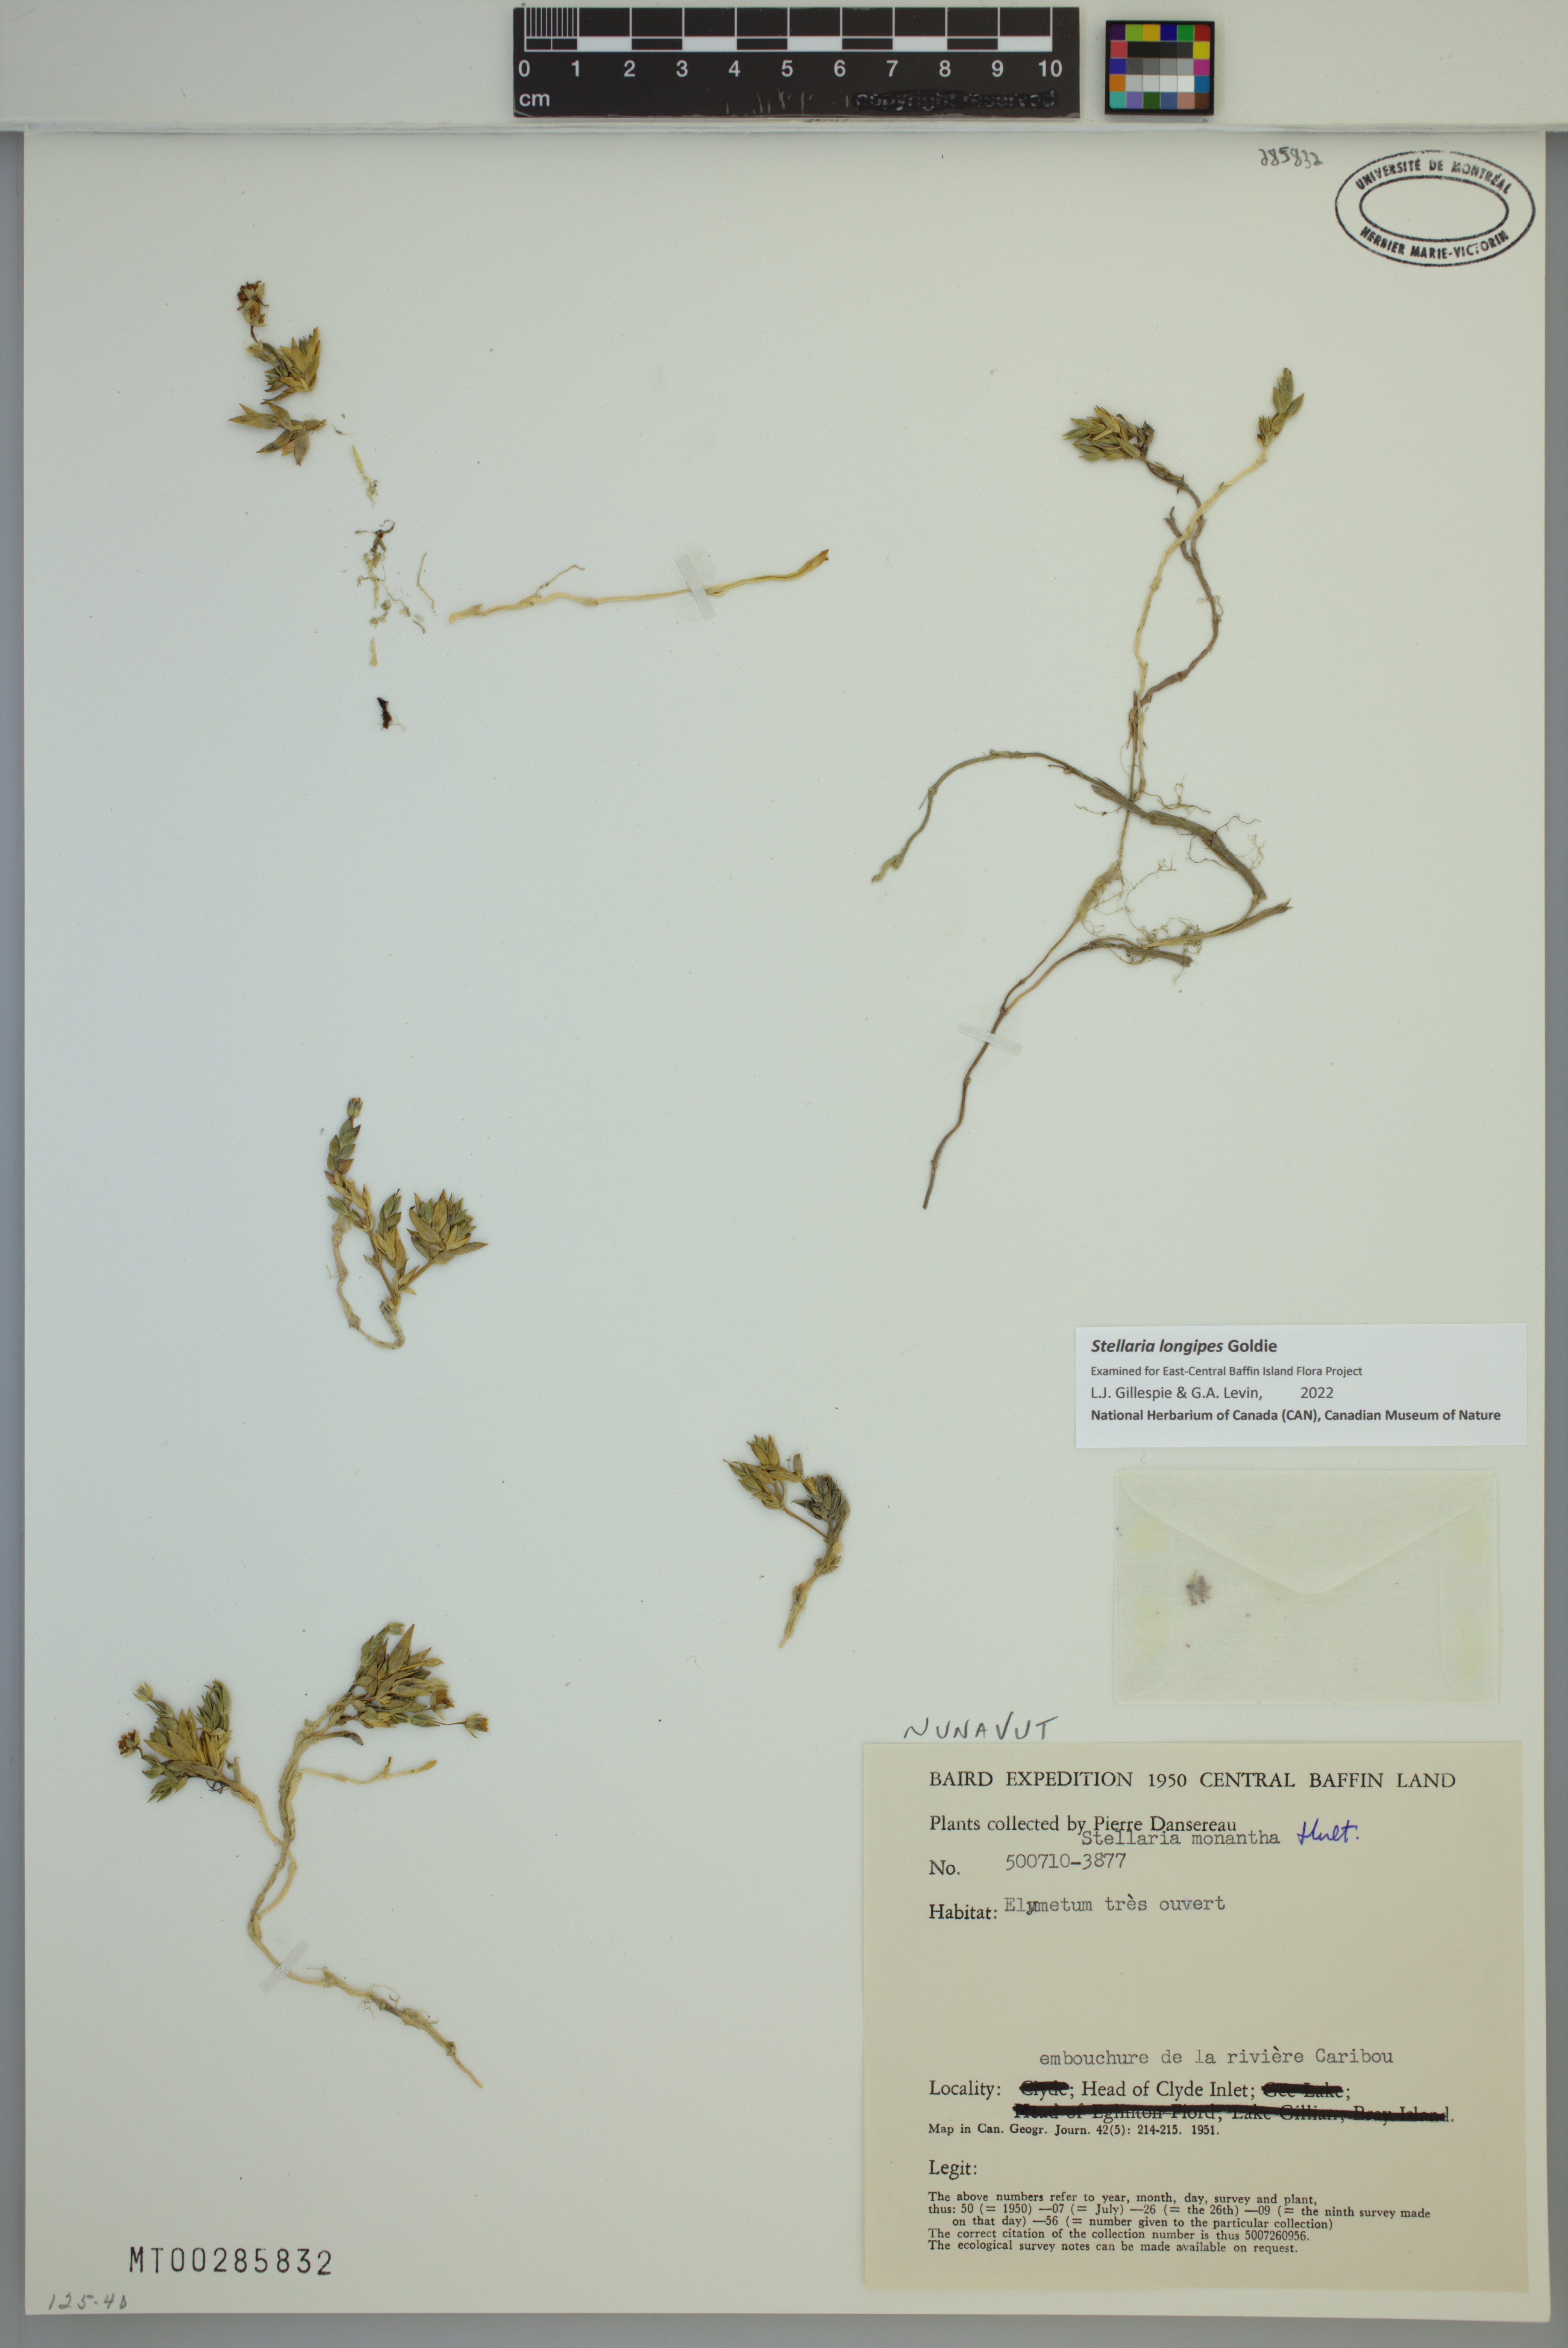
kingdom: Plantae
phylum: Tracheophyta
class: Magnoliopsida
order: Caryophyllales
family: Caryophyllaceae
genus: Stellaria
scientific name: Stellaria longipes
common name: Goldie's starwort
